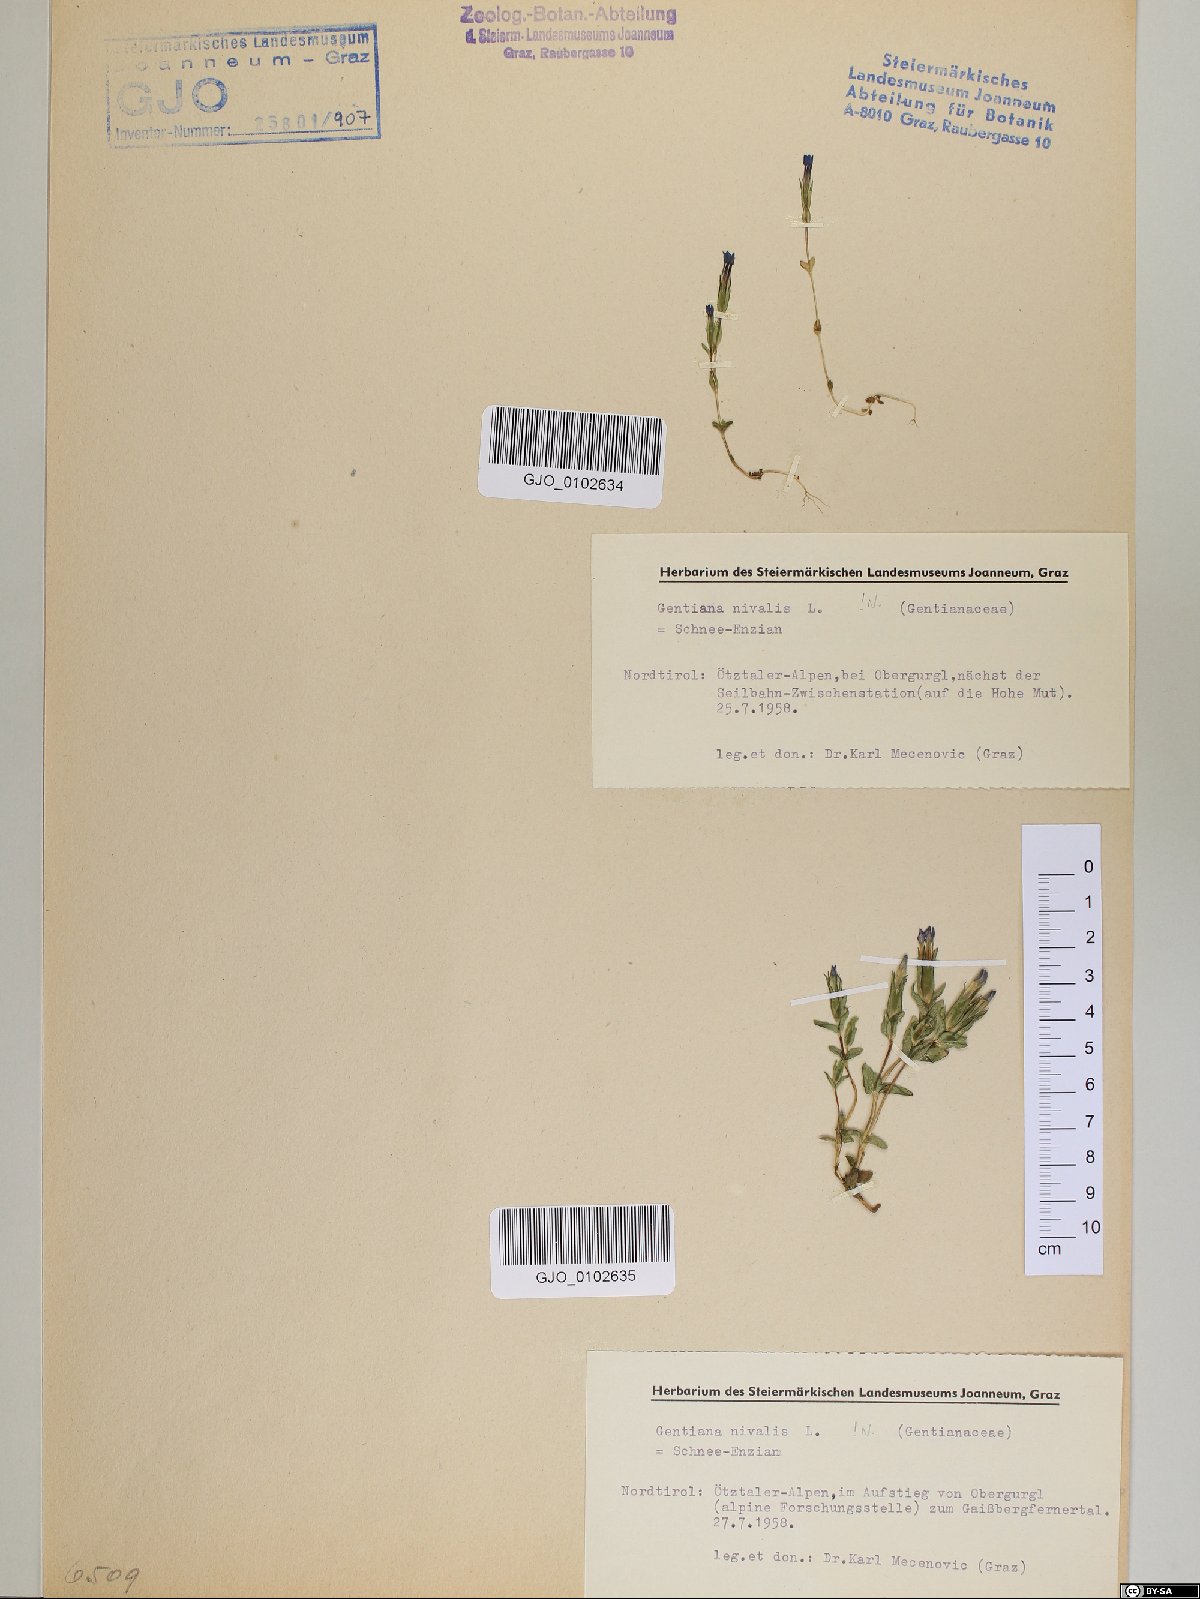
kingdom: Plantae
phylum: Tracheophyta
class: Magnoliopsida
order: Gentianales
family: Gentianaceae
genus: Gentiana
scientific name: Gentiana nivalis
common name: Alpine gentian
